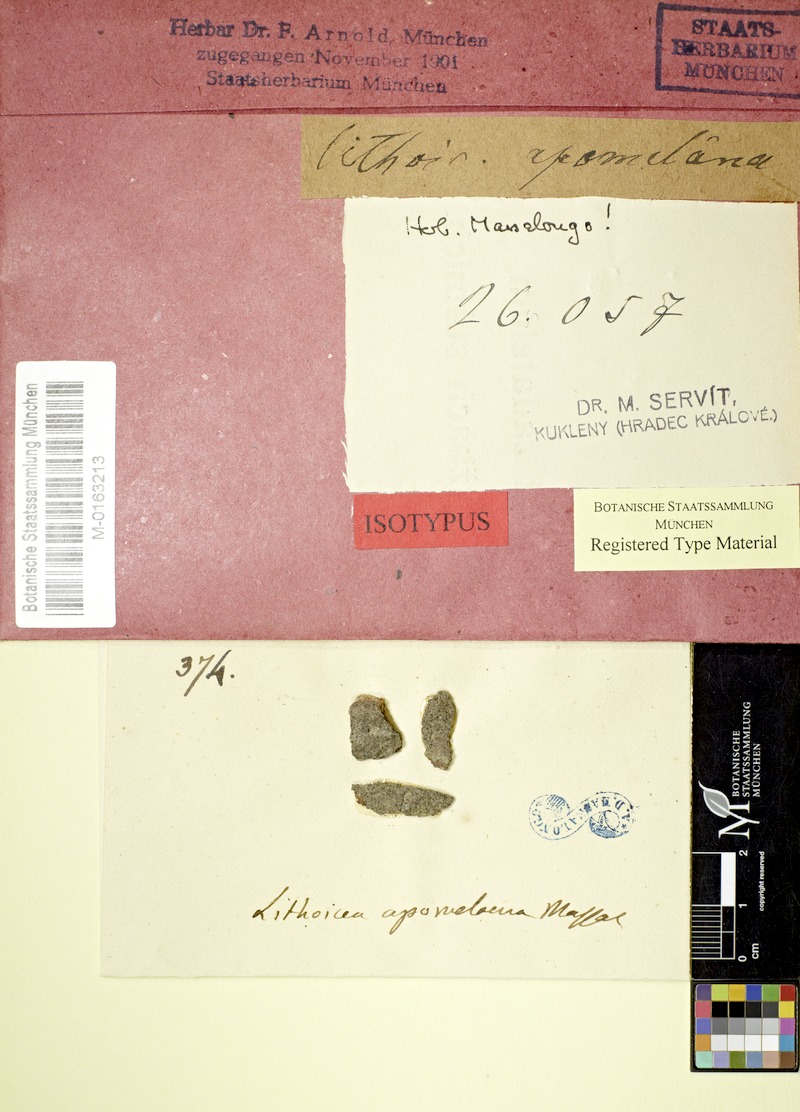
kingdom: Fungi
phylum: Ascomycota
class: Eurotiomycetes
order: Verrucariales
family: Verrucariaceae
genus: Verrucaria
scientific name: Verrucaria apomelaena
